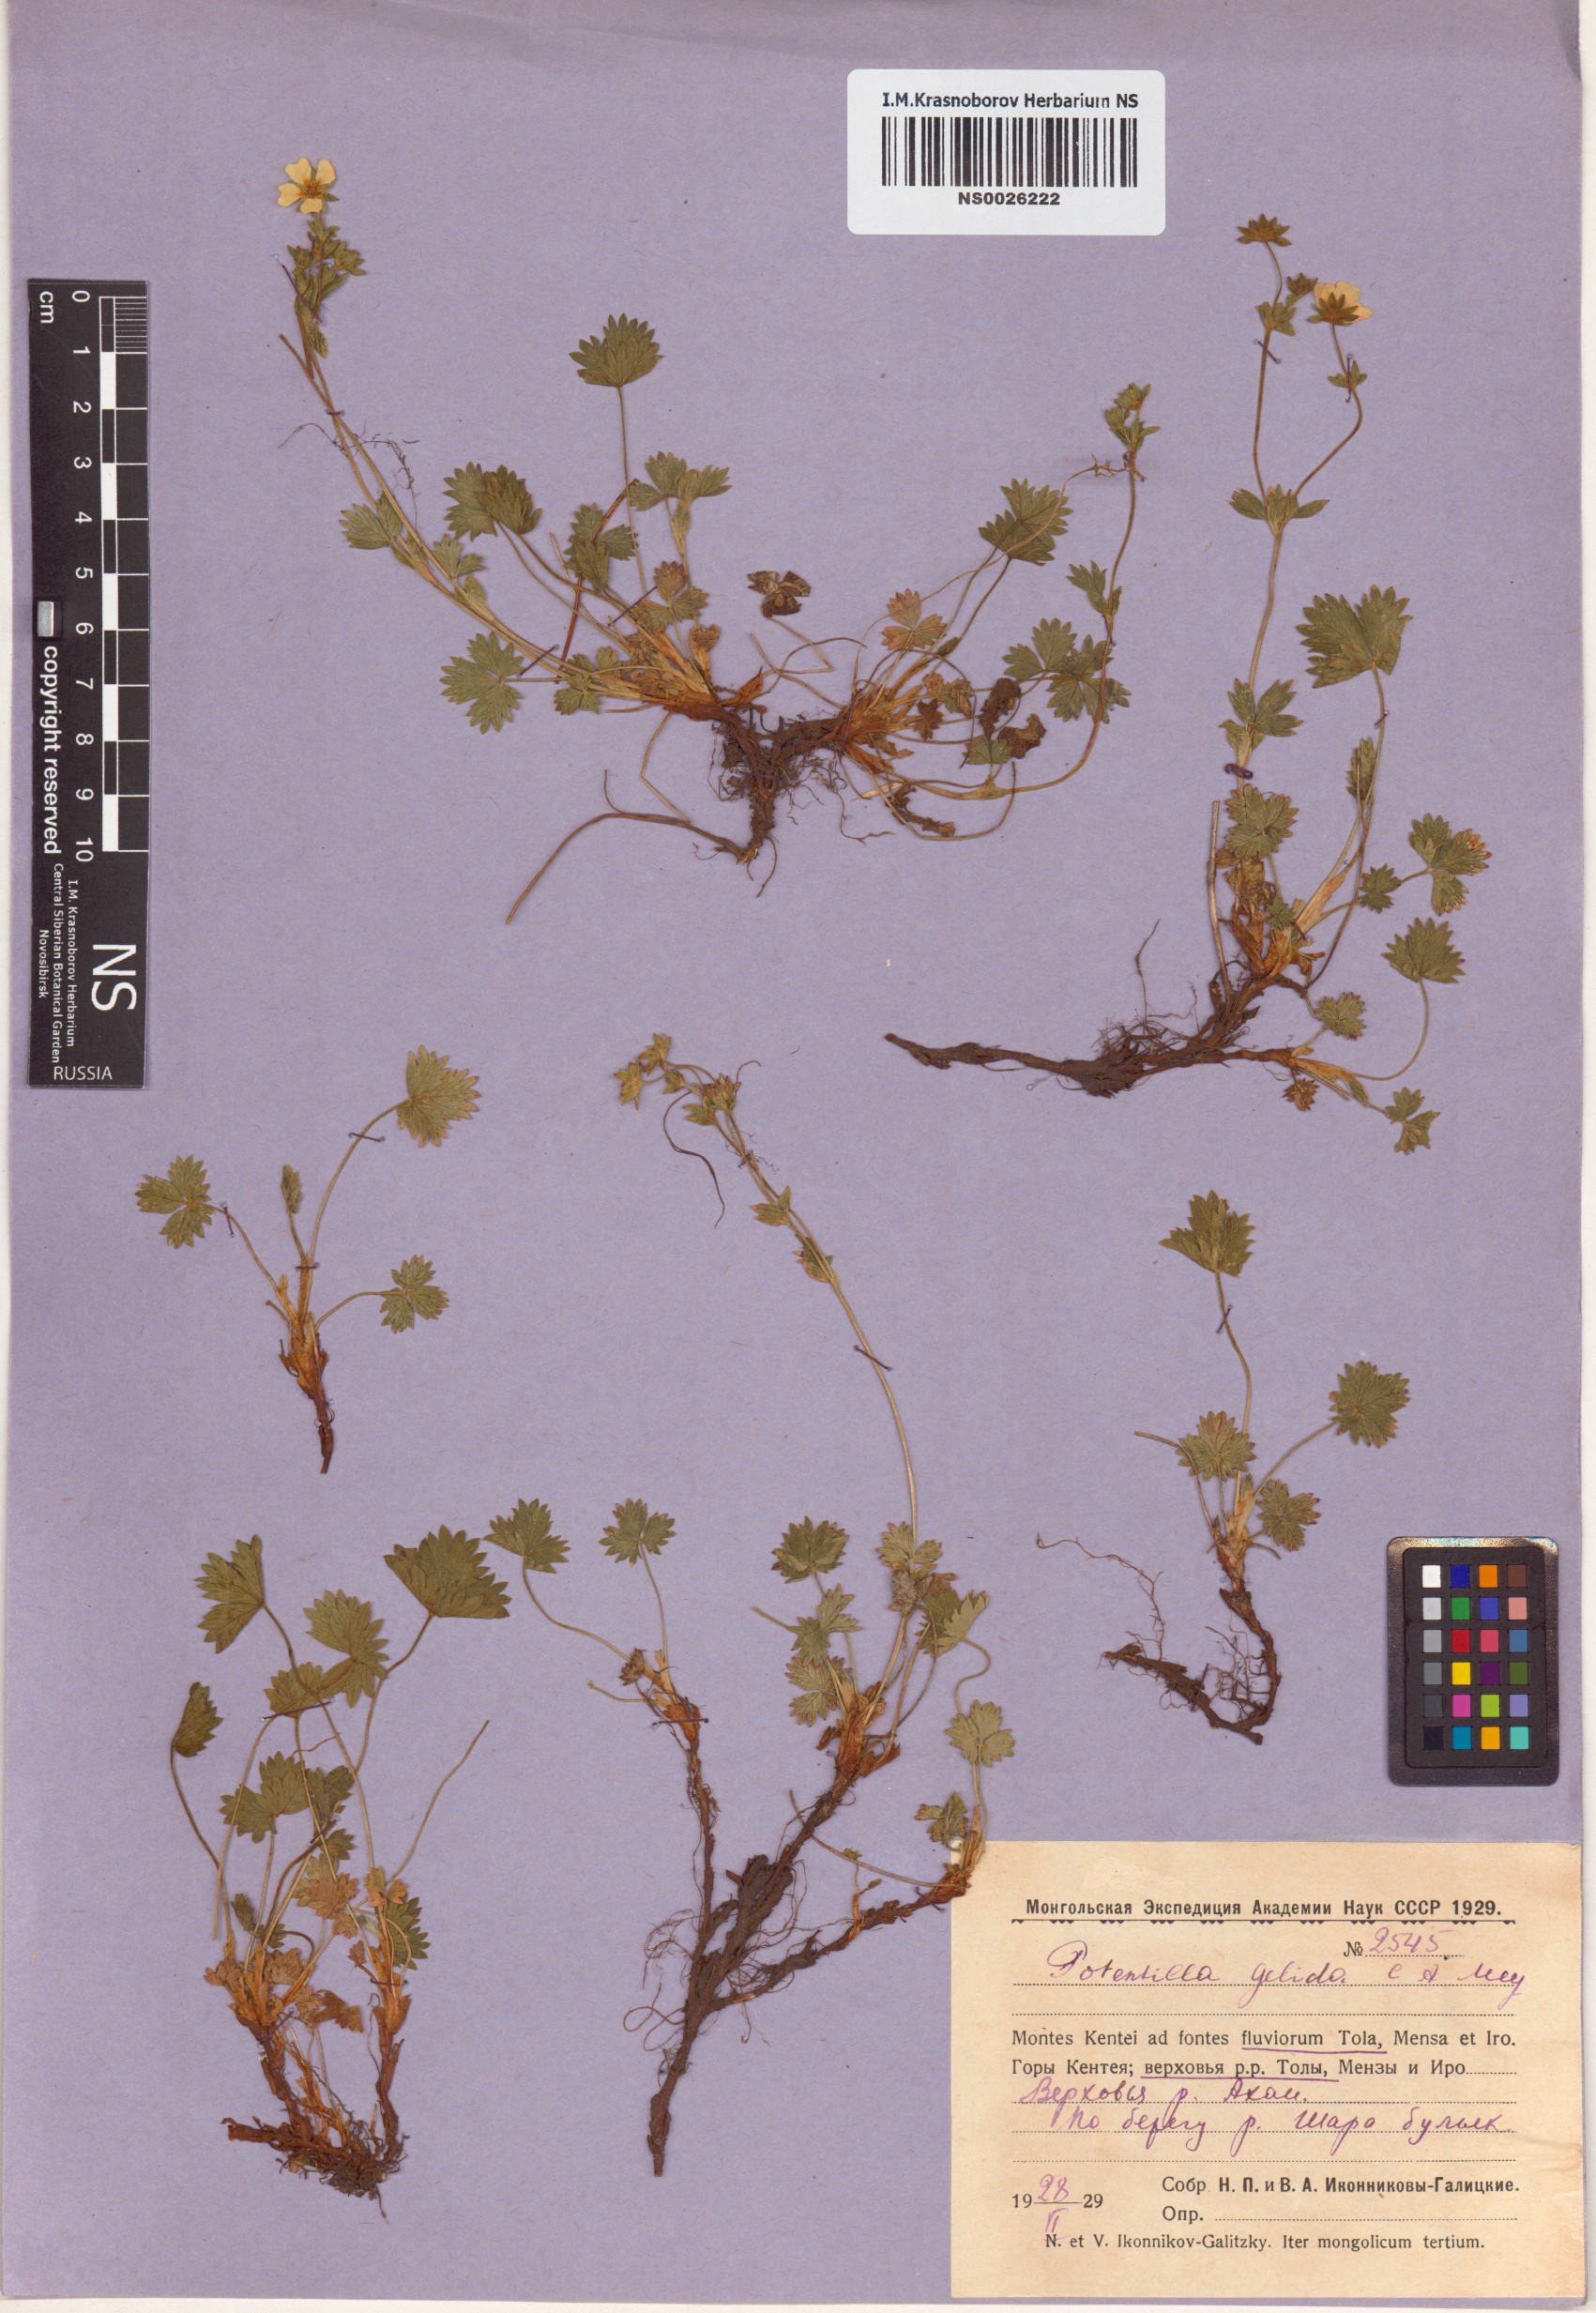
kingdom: Plantae
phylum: Tracheophyta
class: Magnoliopsida
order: Rosales
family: Rosaceae
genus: Potentilla
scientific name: Potentilla crantzii
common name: Alpine cinquefoil
